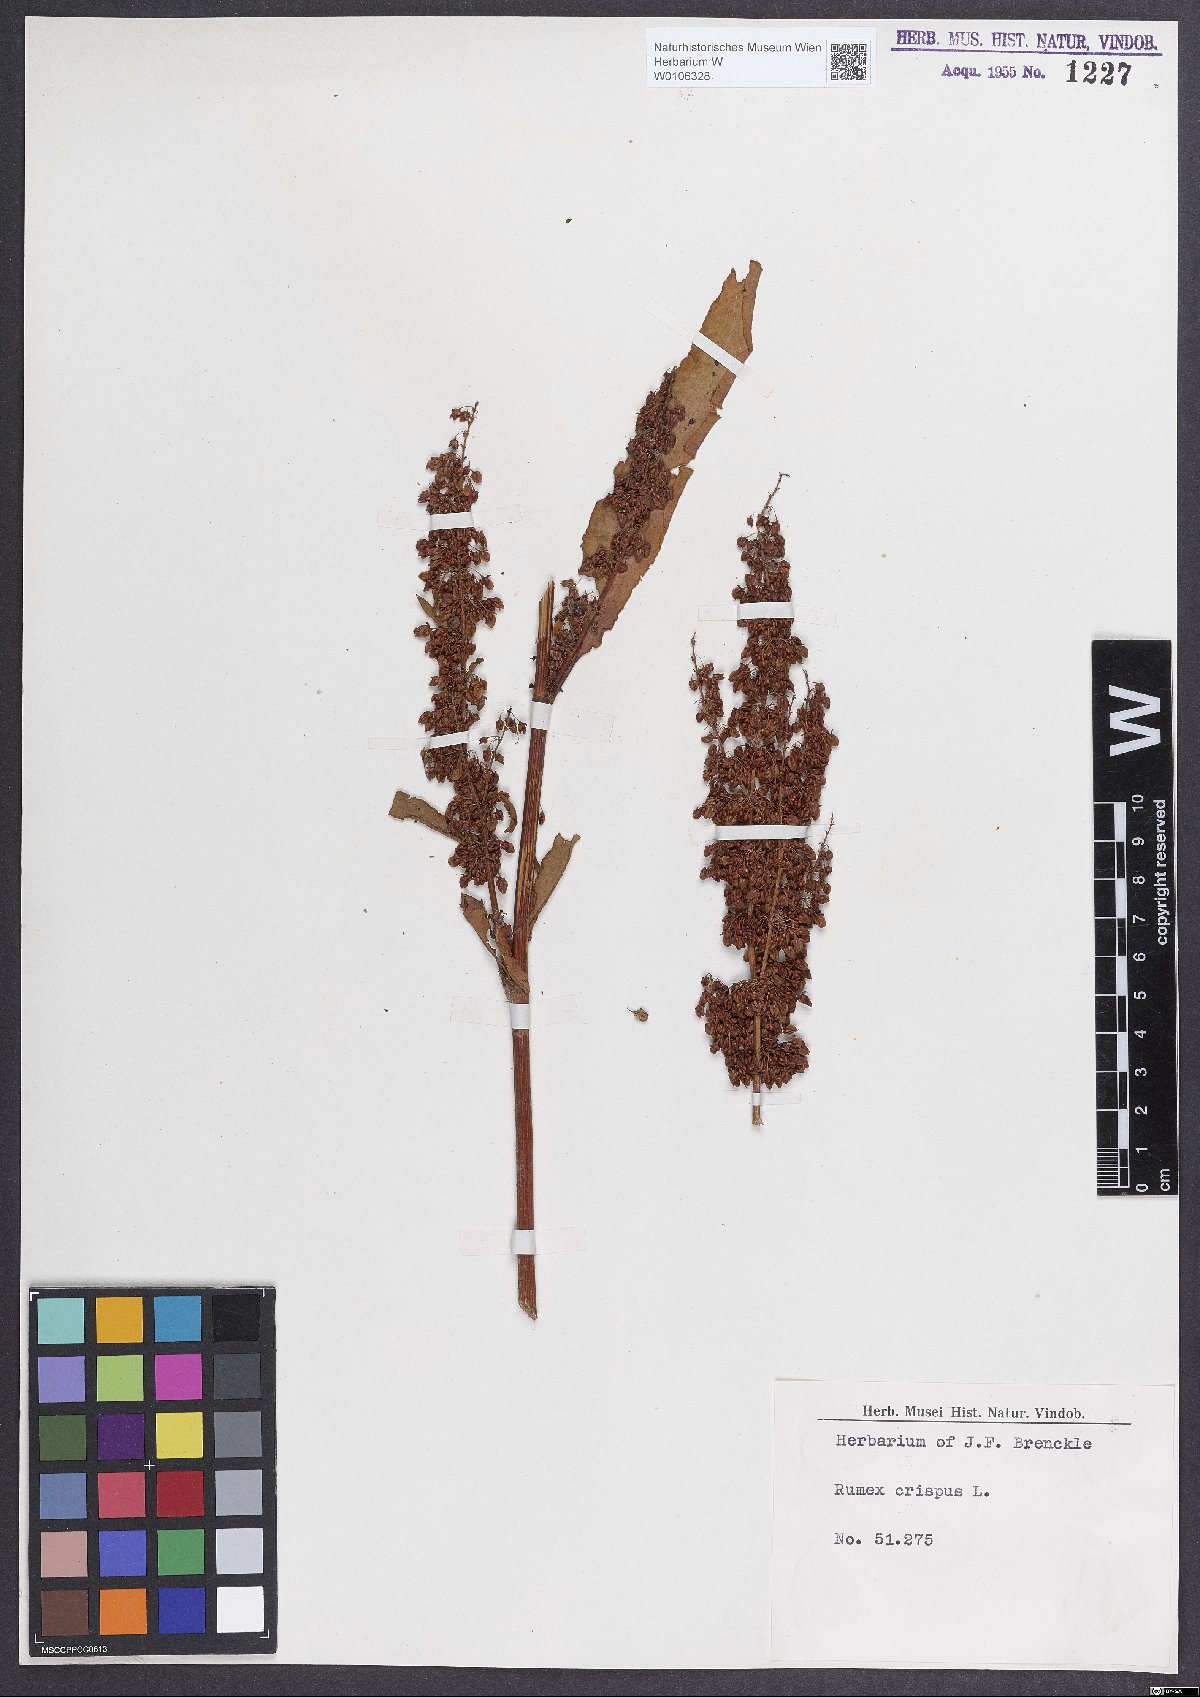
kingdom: Plantae
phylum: Tracheophyta
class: Magnoliopsida
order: Caryophyllales
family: Polygonaceae
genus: Rumex
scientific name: Rumex crispus
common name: Curled dock
